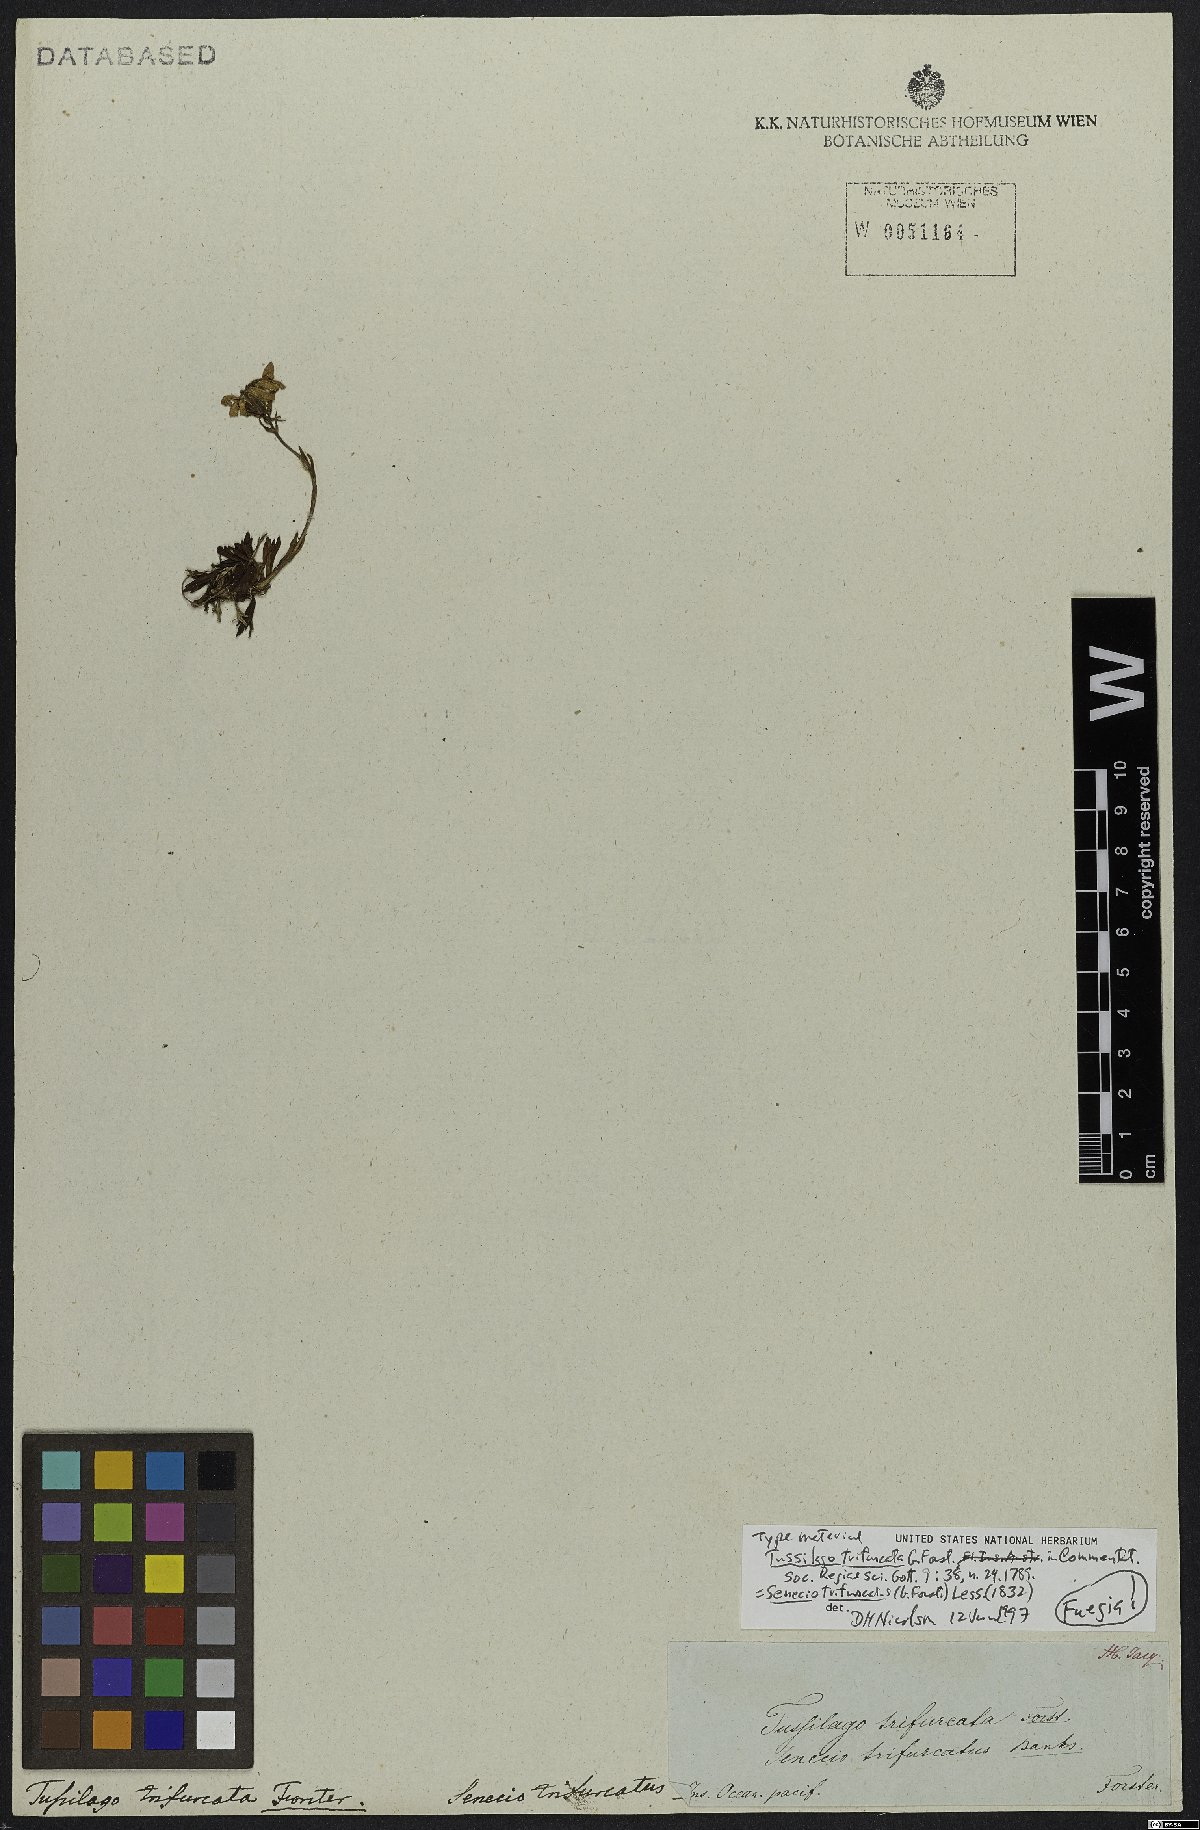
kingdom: Plantae
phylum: Tracheophyta
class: Magnoliopsida
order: Asterales
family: Asteraceae
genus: Haplosticha
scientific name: Haplosticha trifurcata
